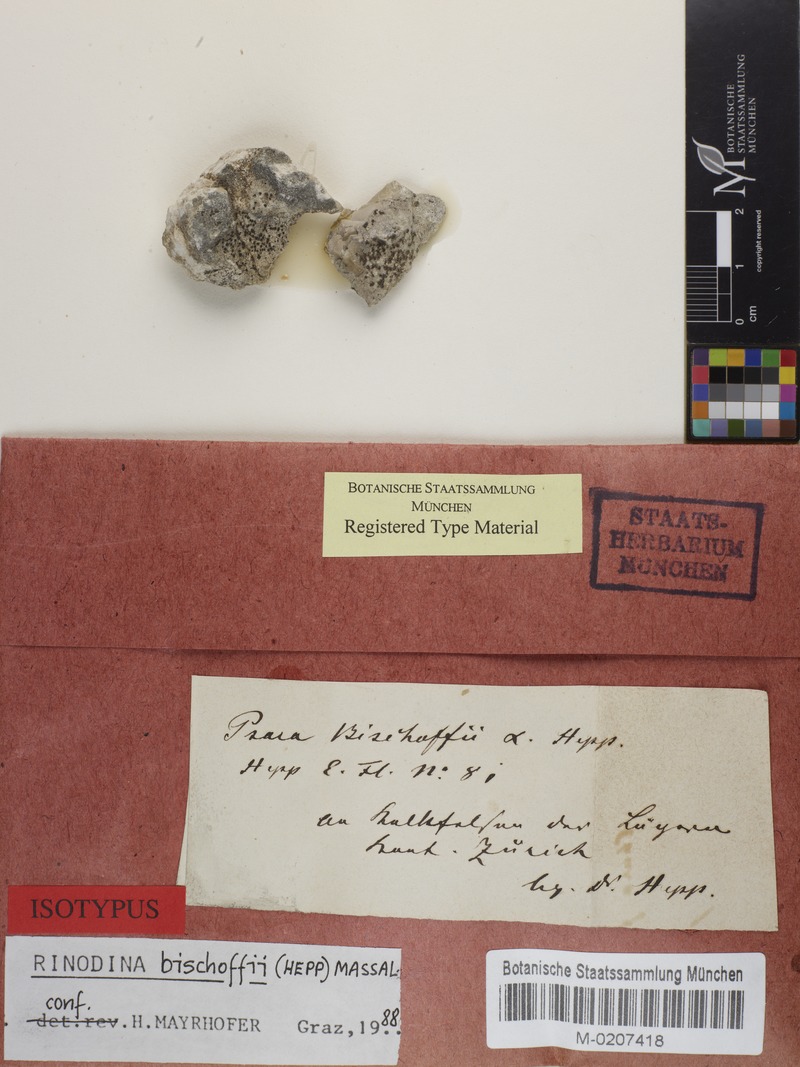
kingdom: Fungi
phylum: Ascomycota
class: Lecanoromycetes
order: Caliciales
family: Physciaceae
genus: Rinodina
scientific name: Rinodina bischoffii
